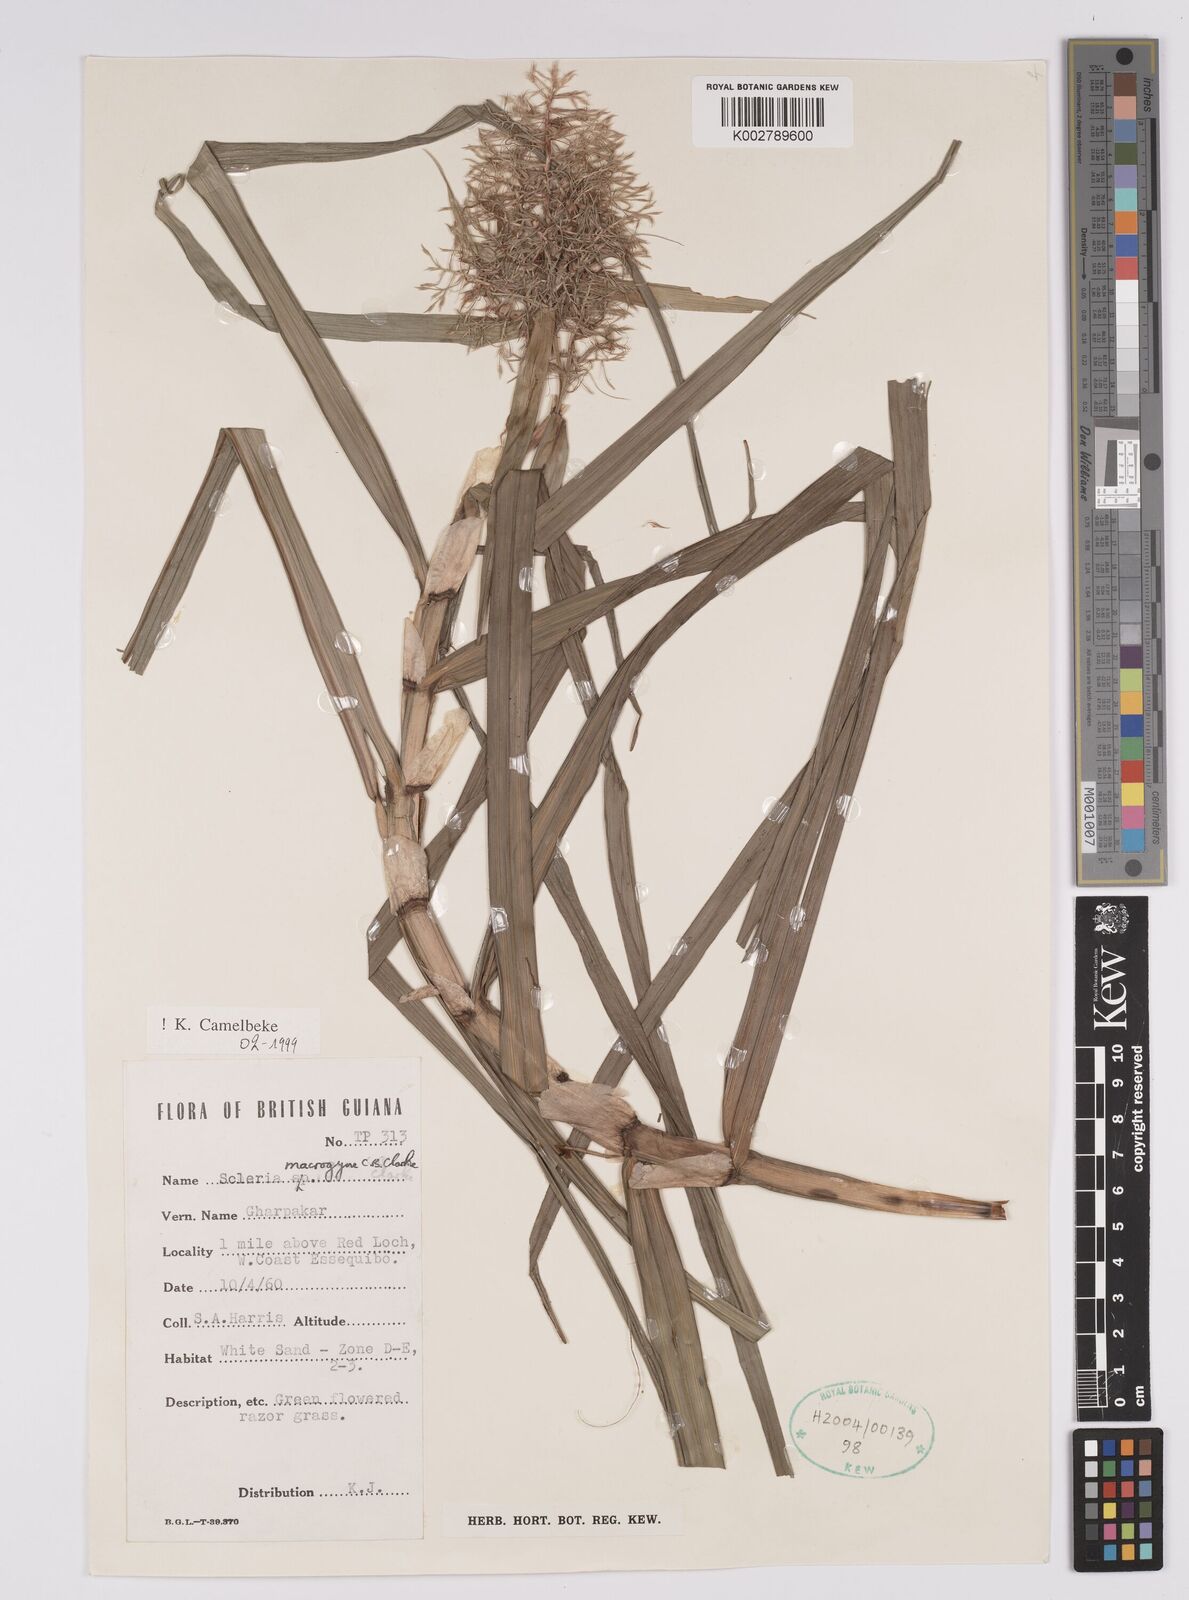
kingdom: Plantae
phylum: Tracheophyta
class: Liliopsida
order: Poales
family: Cyperaceae
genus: Scleria
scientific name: Scleria macrogyne
